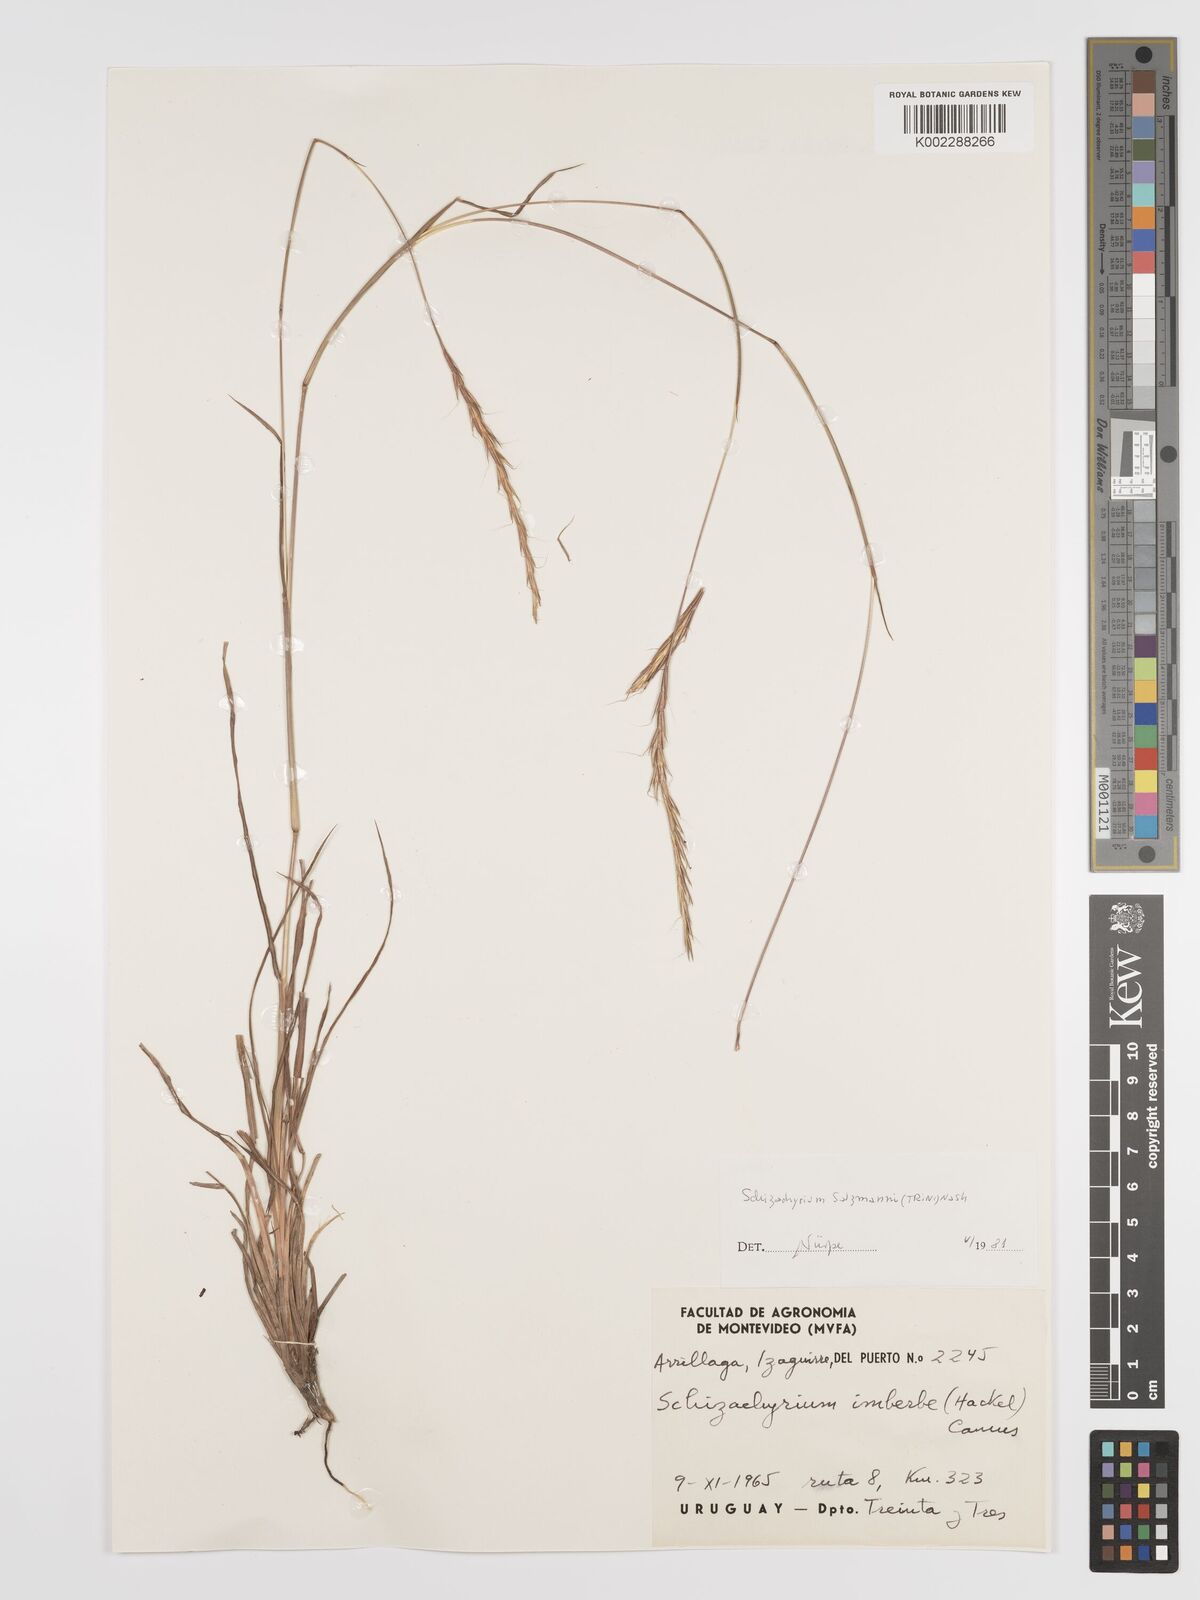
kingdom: Plantae
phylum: Tracheophyta
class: Liliopsida
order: Poales
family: Poaceae
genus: Andropogon
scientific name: Andropogon salzmannii
